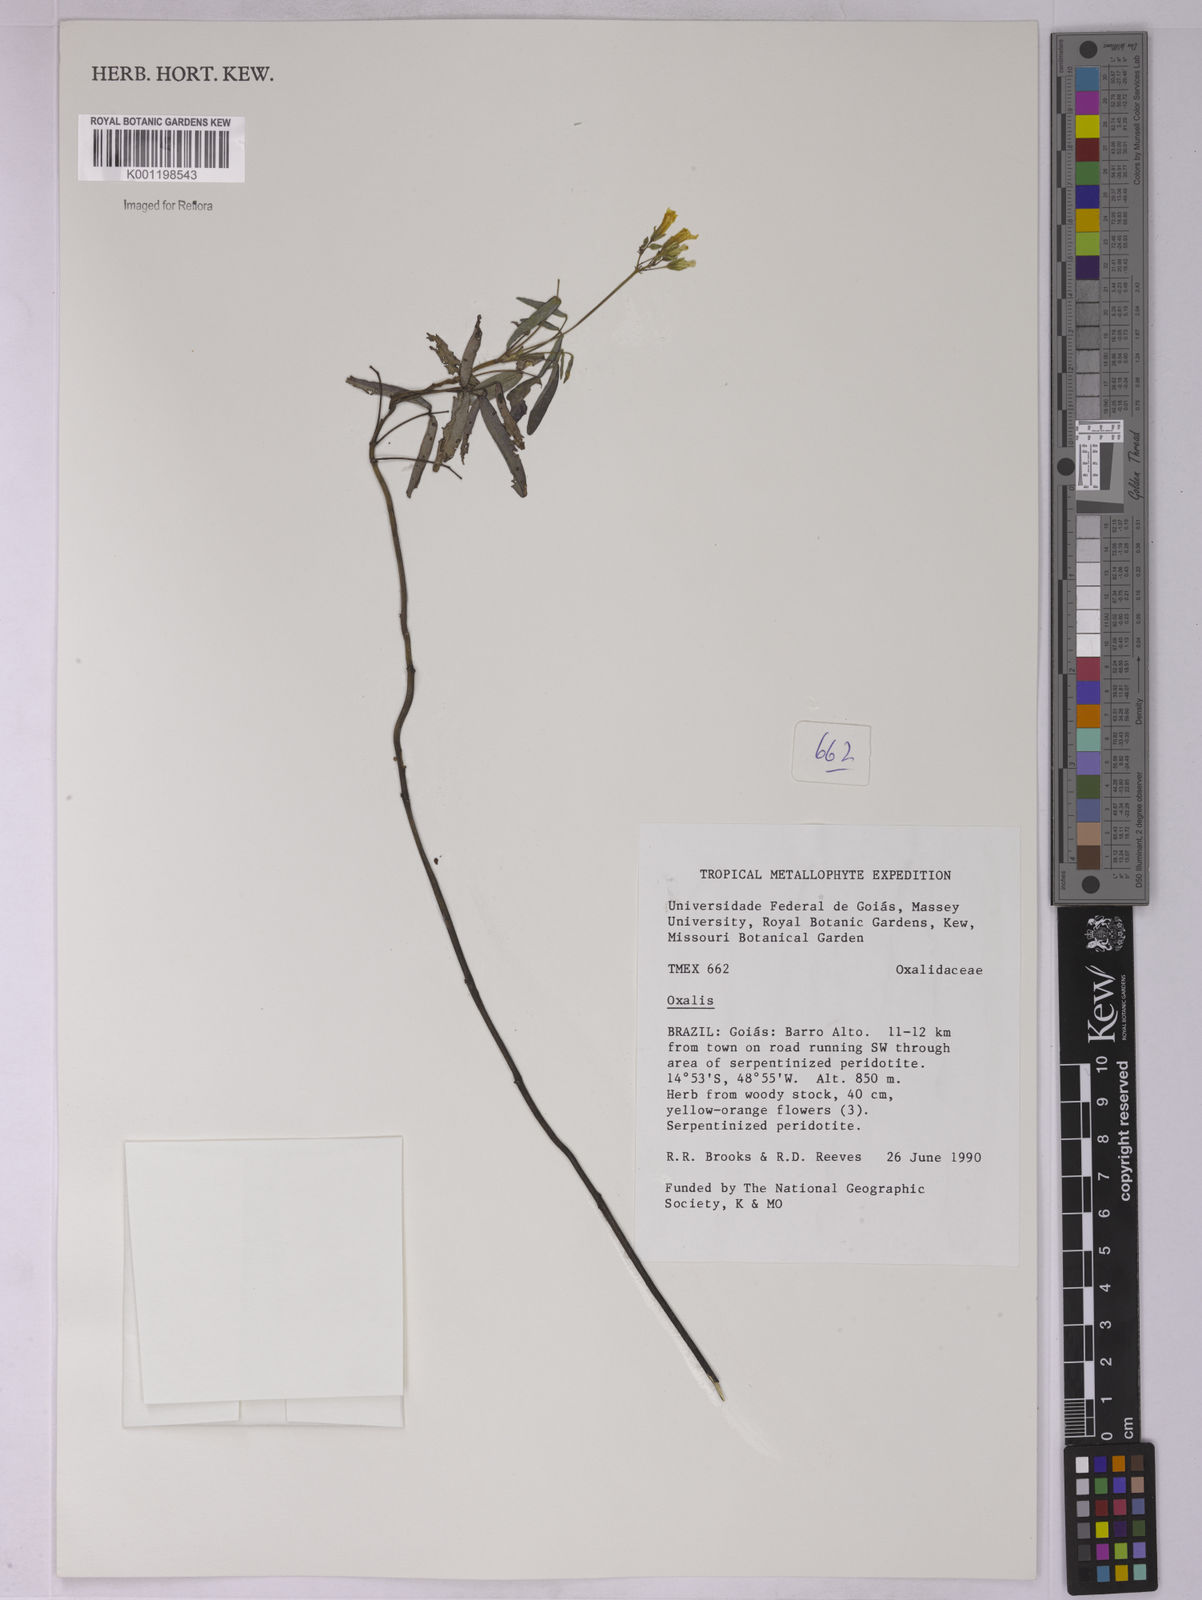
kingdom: Plantae
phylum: Tracheophyta
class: Magnoliopsida
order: Oxalidales
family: Oxalidaceae
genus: Oxalis
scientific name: Oxalis
